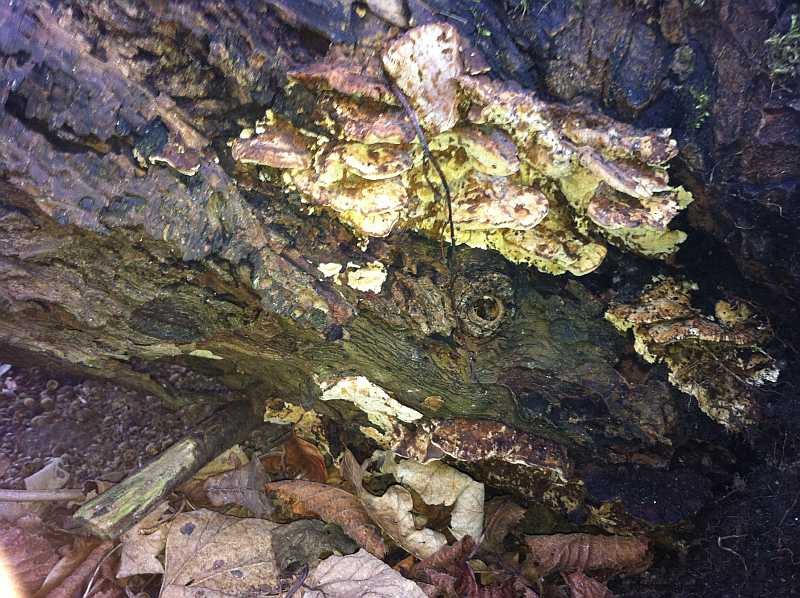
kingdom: Fungi
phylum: Basidiomycota
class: Agaricomycetes
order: Polyporales
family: Phanerochaetaceae
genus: Bjerkandera
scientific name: Bjerkandera fumosa
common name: grågul sodporesvamp
